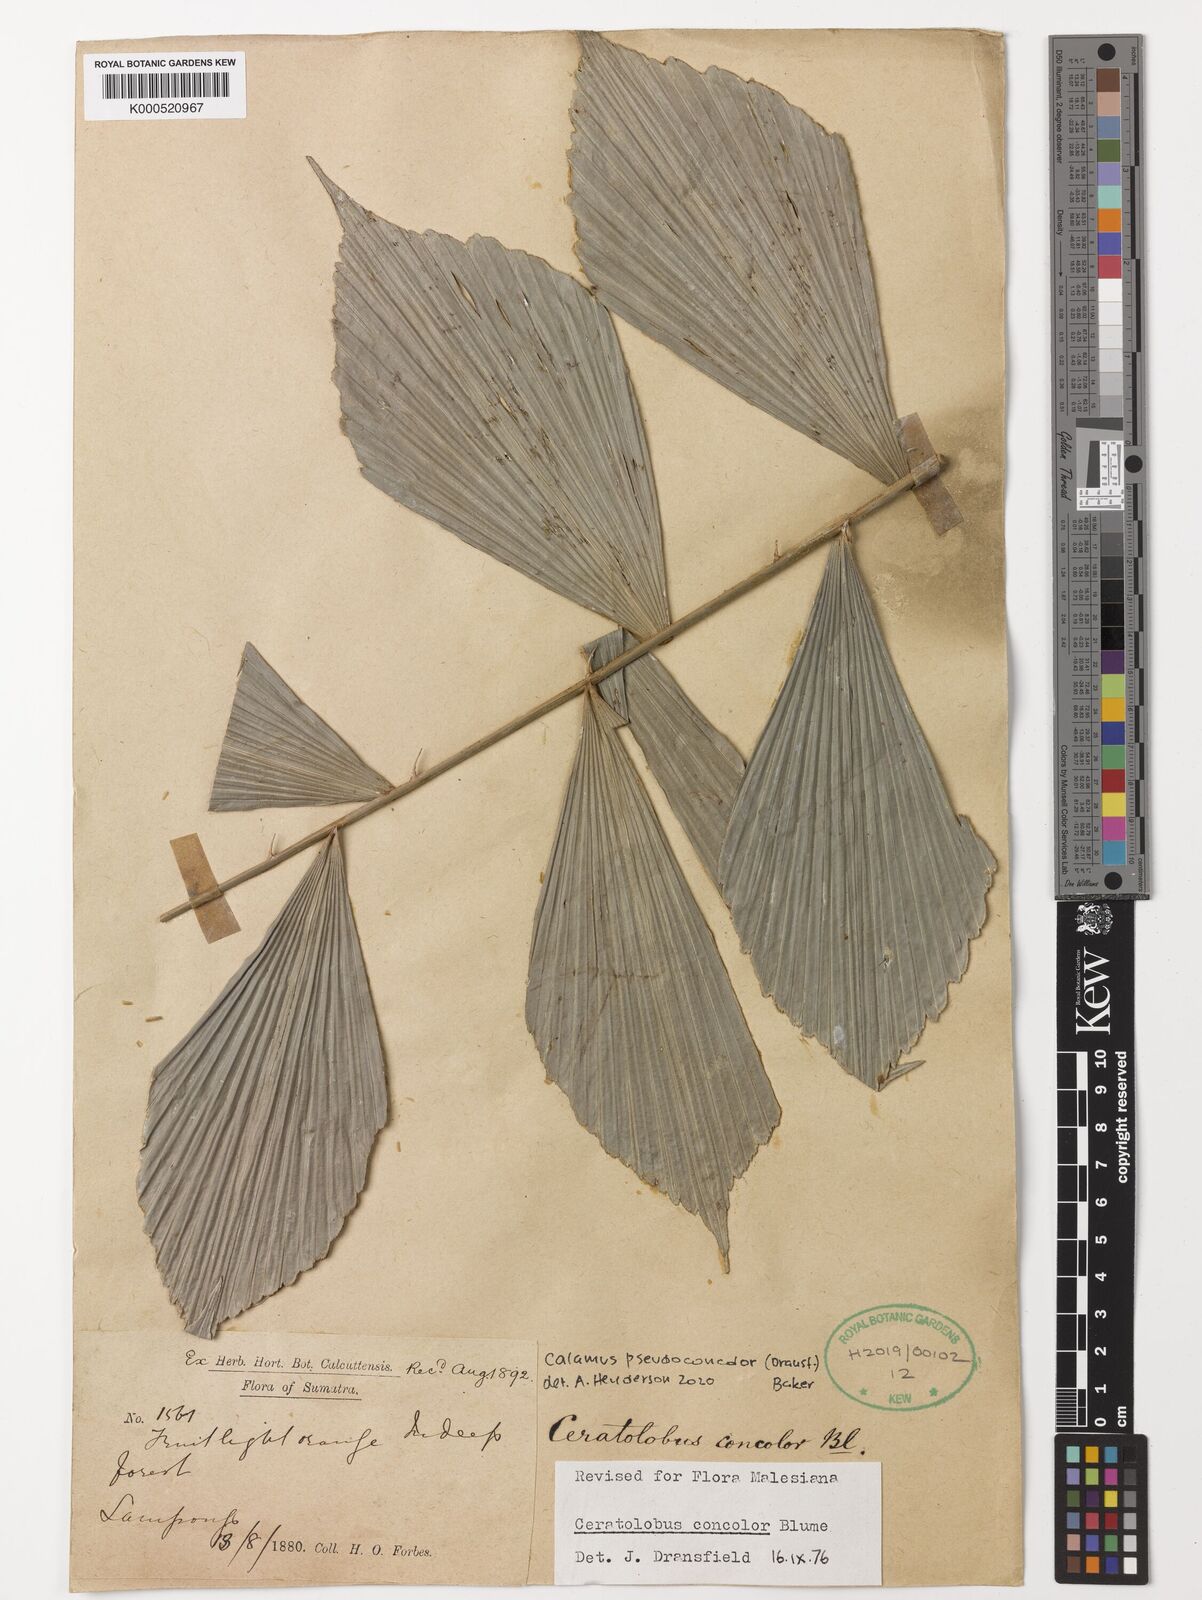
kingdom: Plantae
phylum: Tracheophyta
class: Liliopsida
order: Arecales
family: Arecaceae
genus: Calamus
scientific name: Calamus concolor
